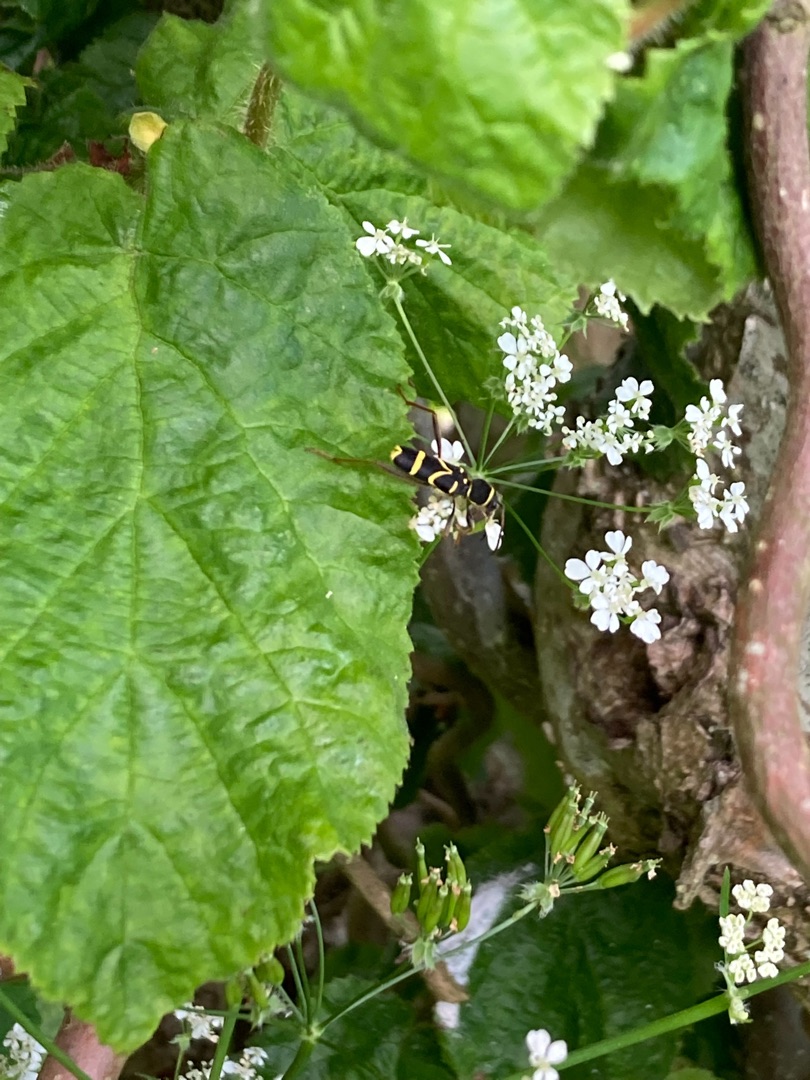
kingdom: Animalia
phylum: Arthropoda
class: Insecta
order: Coleoptera
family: Cerambycidae
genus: Clytus
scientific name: Clytus arietis
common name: Lille hvepsebuk
